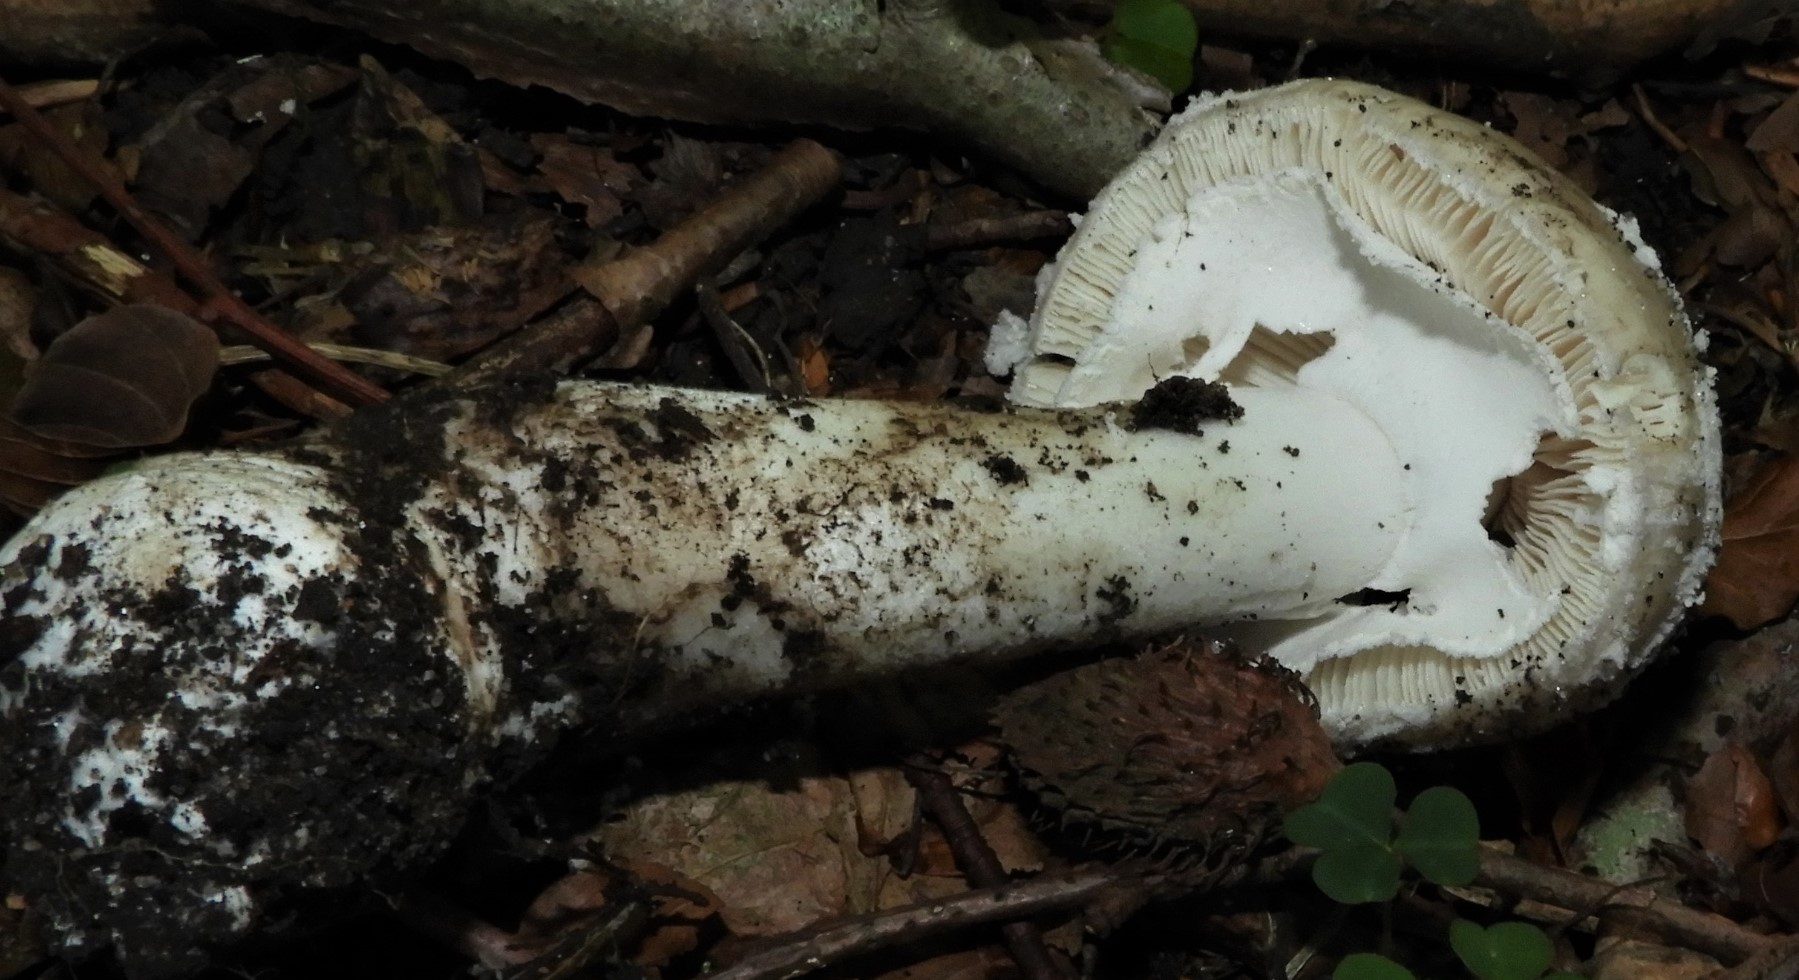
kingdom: Fungi
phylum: Basidiomycota
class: Agaricomycetes
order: Agaricales
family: Amanitaceae
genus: Amanita
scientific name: Amanita
